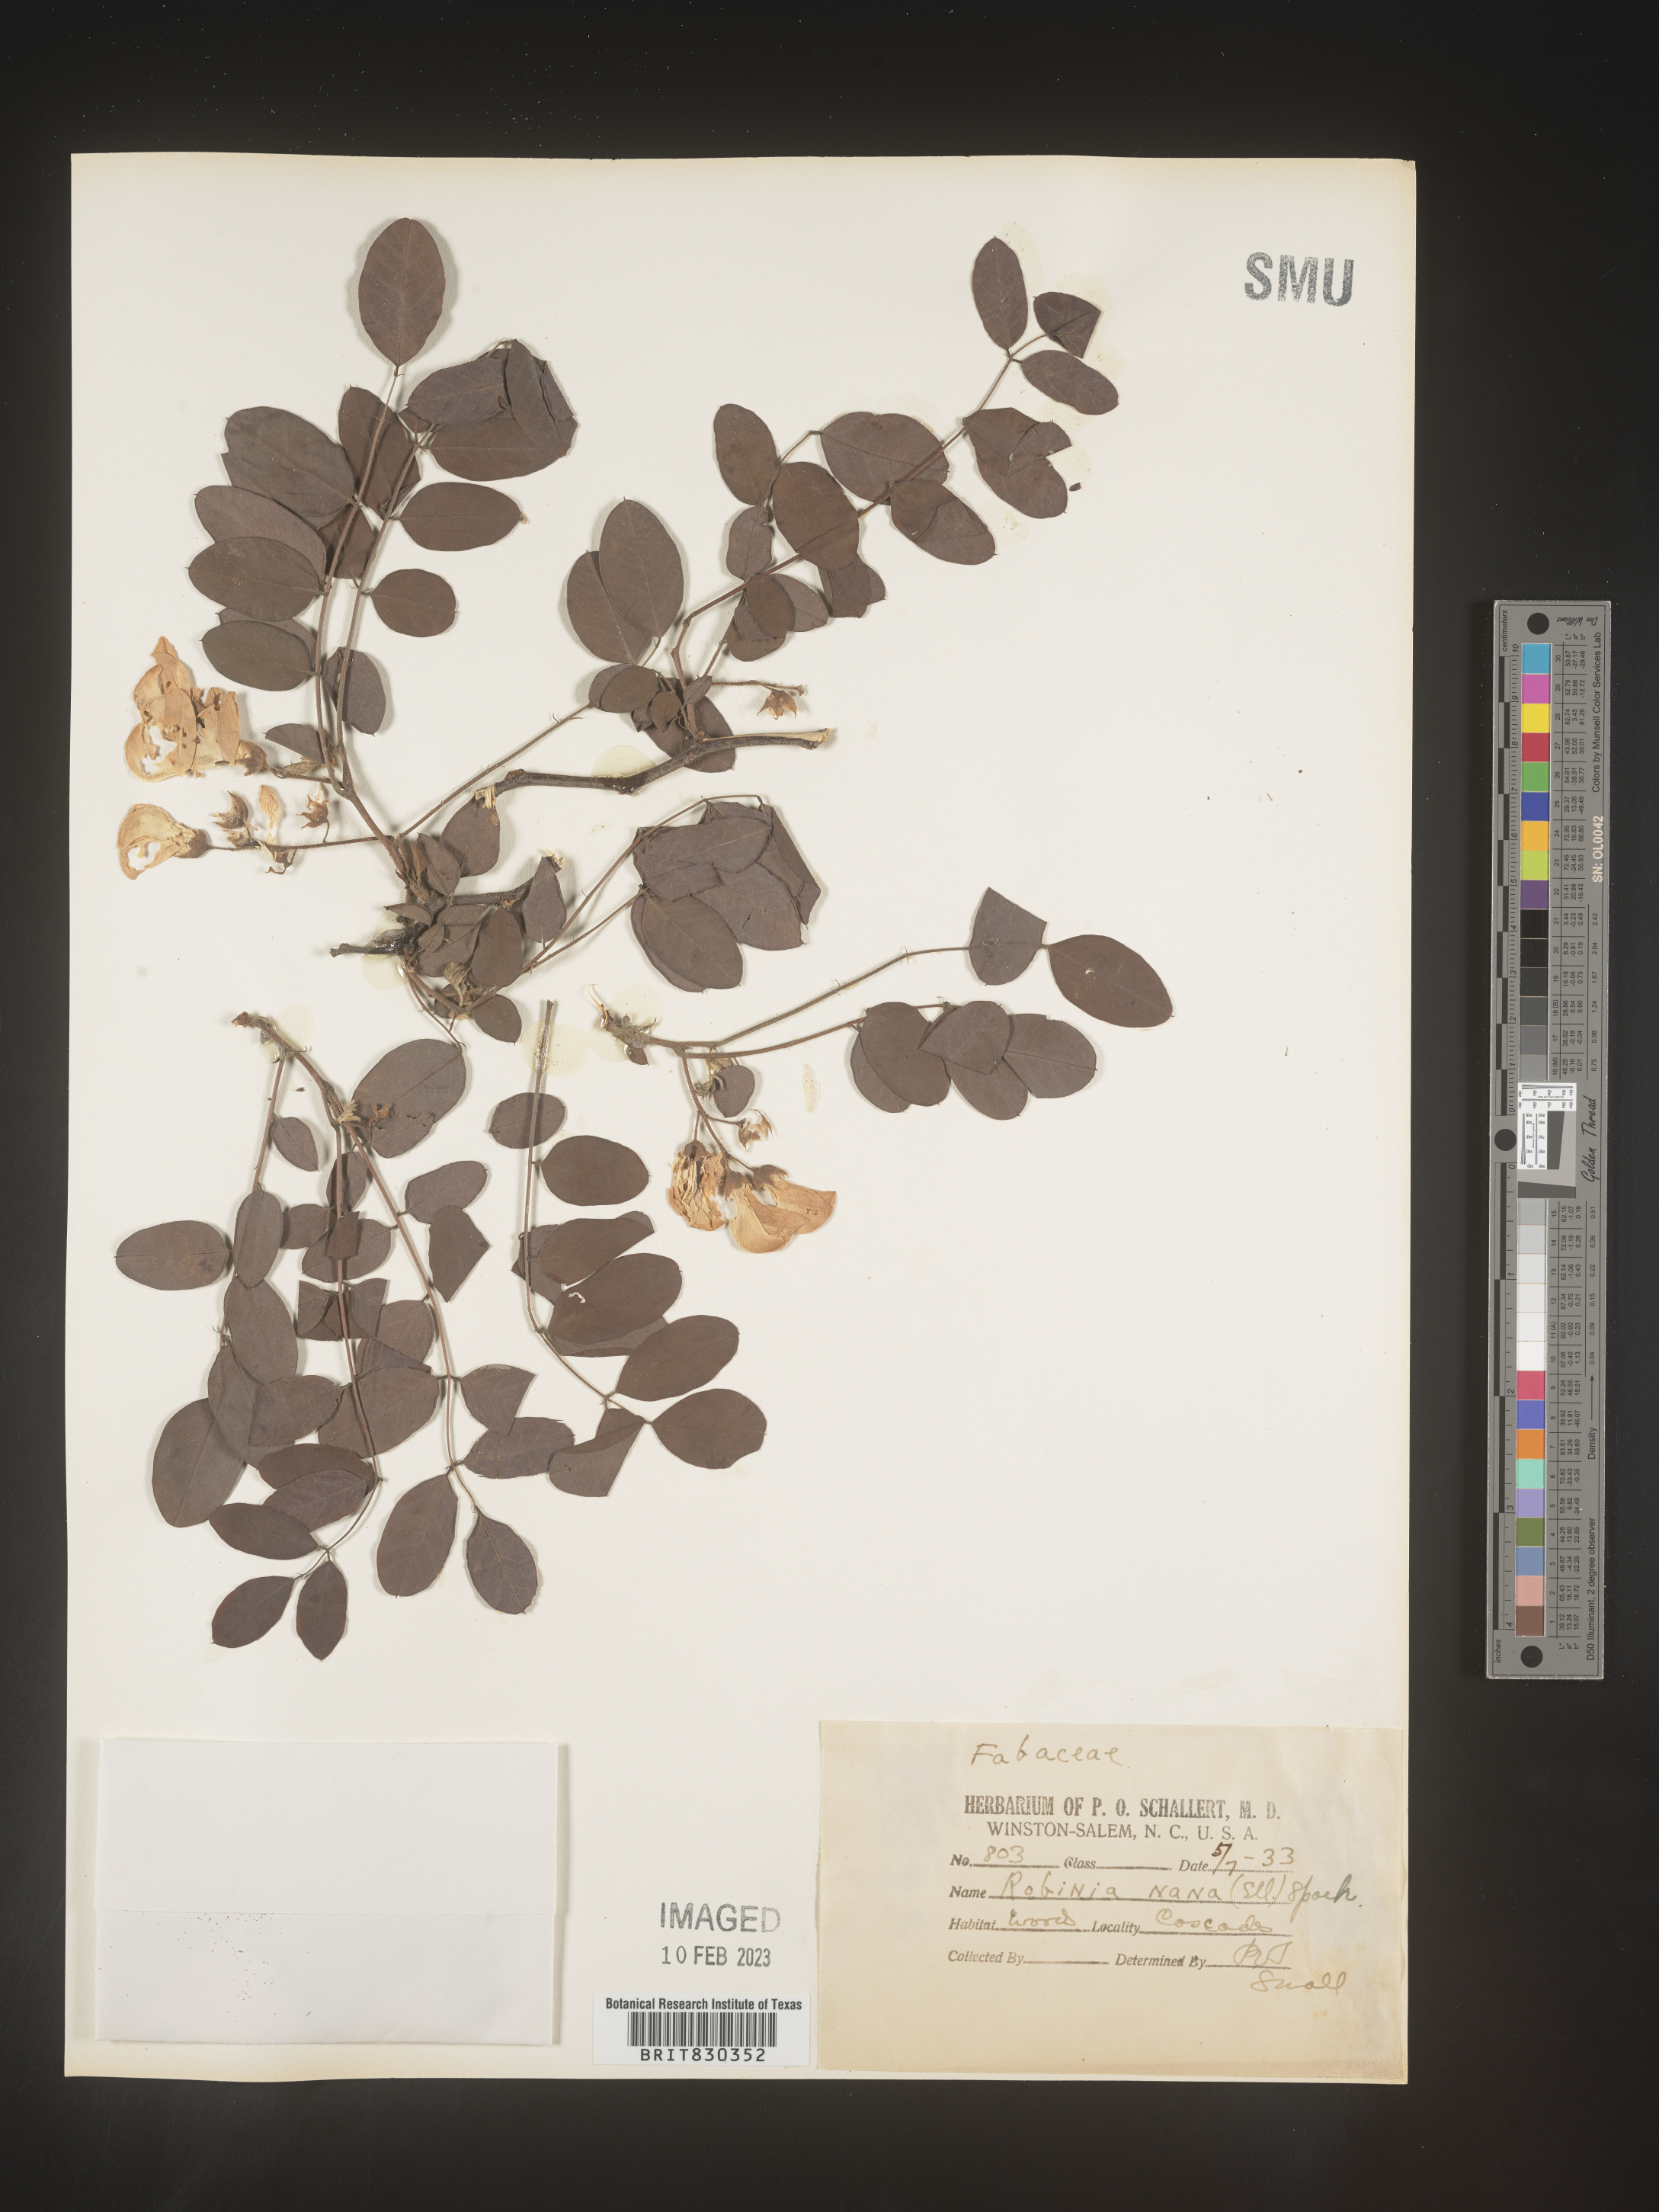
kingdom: Plantae
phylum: Tracheophyta
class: Magnoliopsida
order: Fabales
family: Fabaceae
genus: Robinia
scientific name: Robinia
